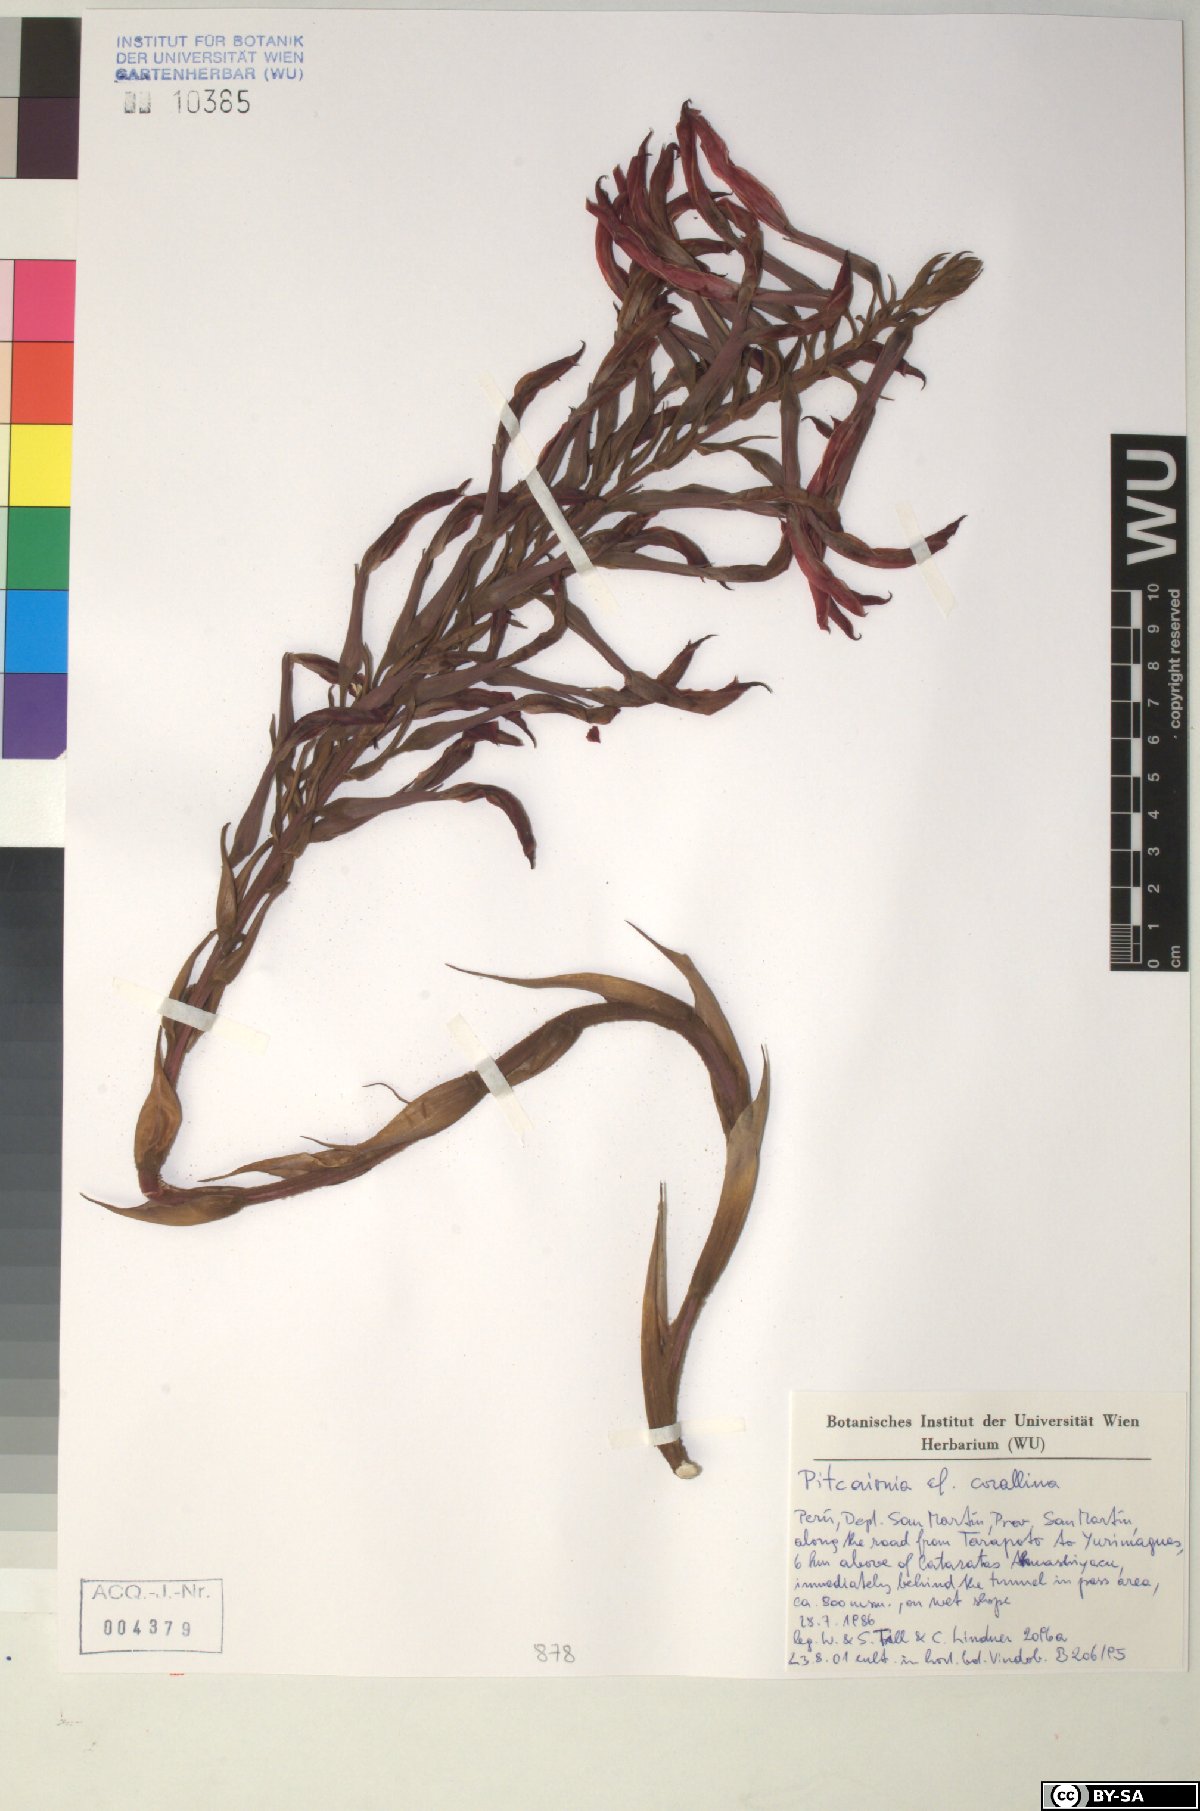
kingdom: Plantae
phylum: Tracheophyta
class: Liliopsida
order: Poales
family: Bromeliaceae
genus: Pitcairnia
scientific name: Pitcairnia corallina
